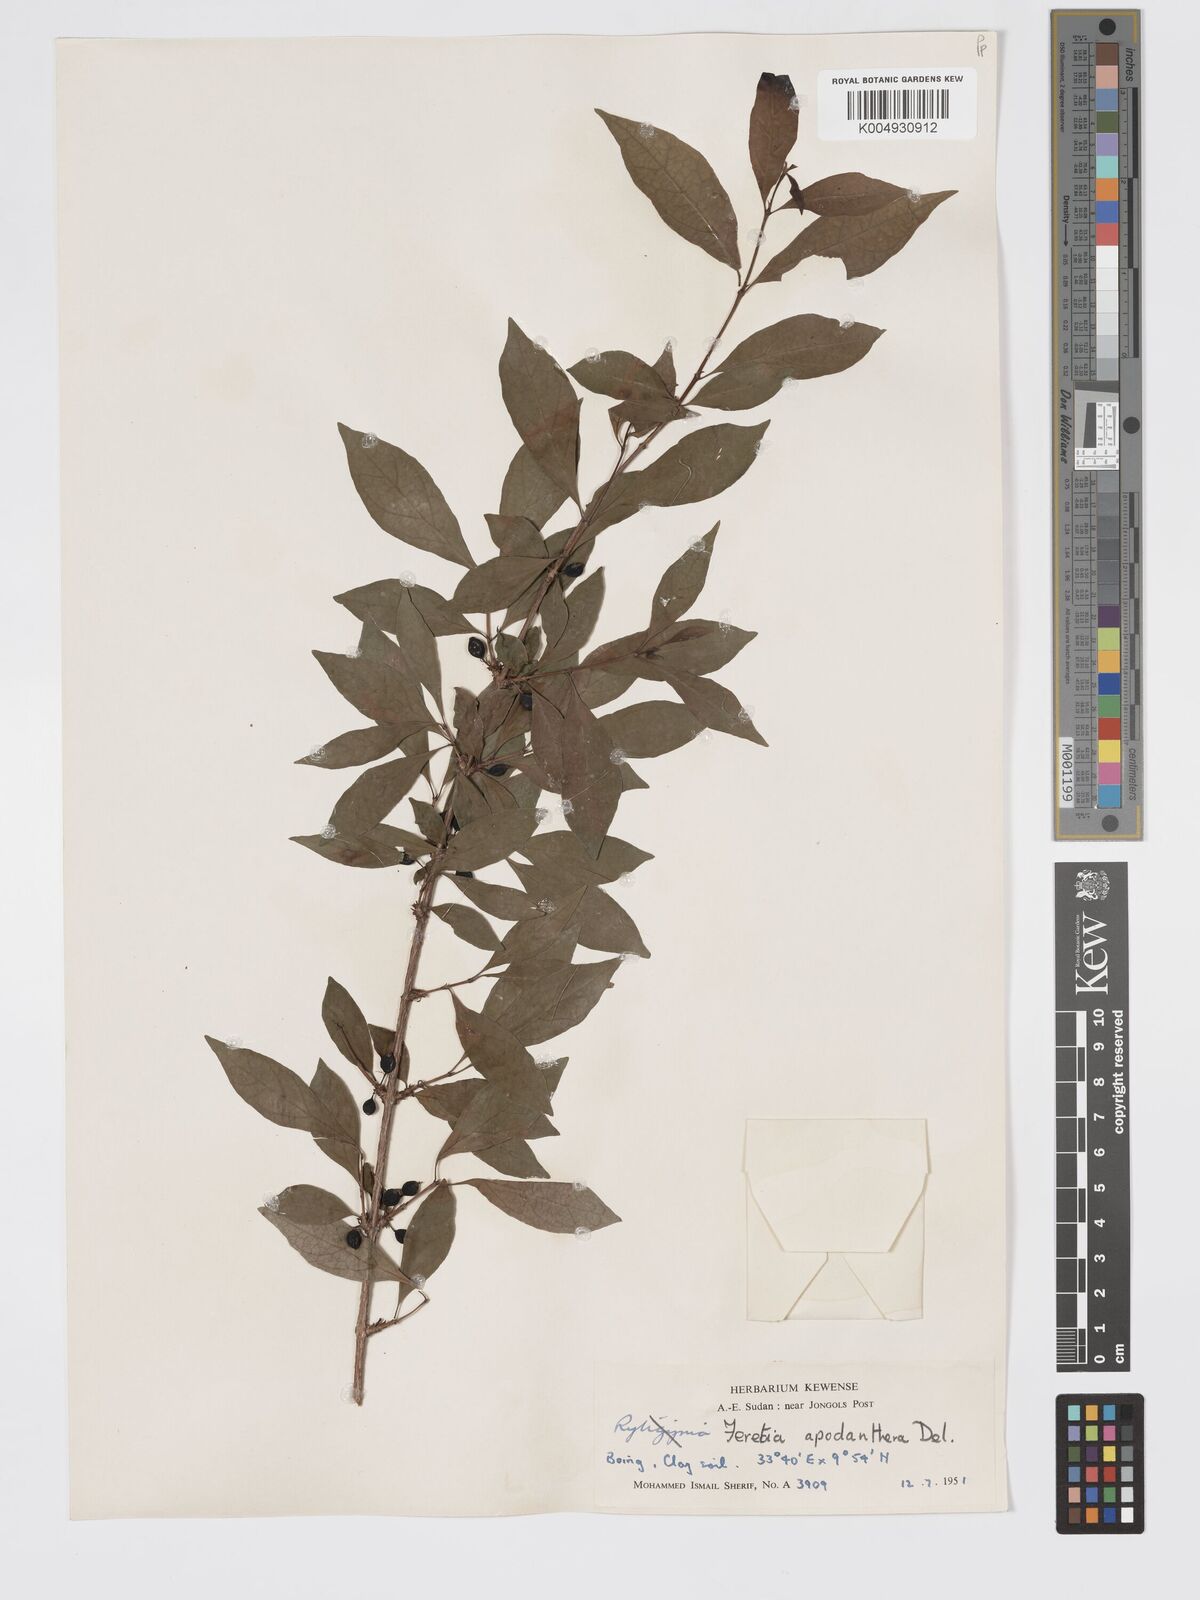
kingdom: Plantae
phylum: Tracheophyta
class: Magnoliopsida
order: Gentianales
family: Rubiaceae
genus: Feretia
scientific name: Feretia apodanthera
